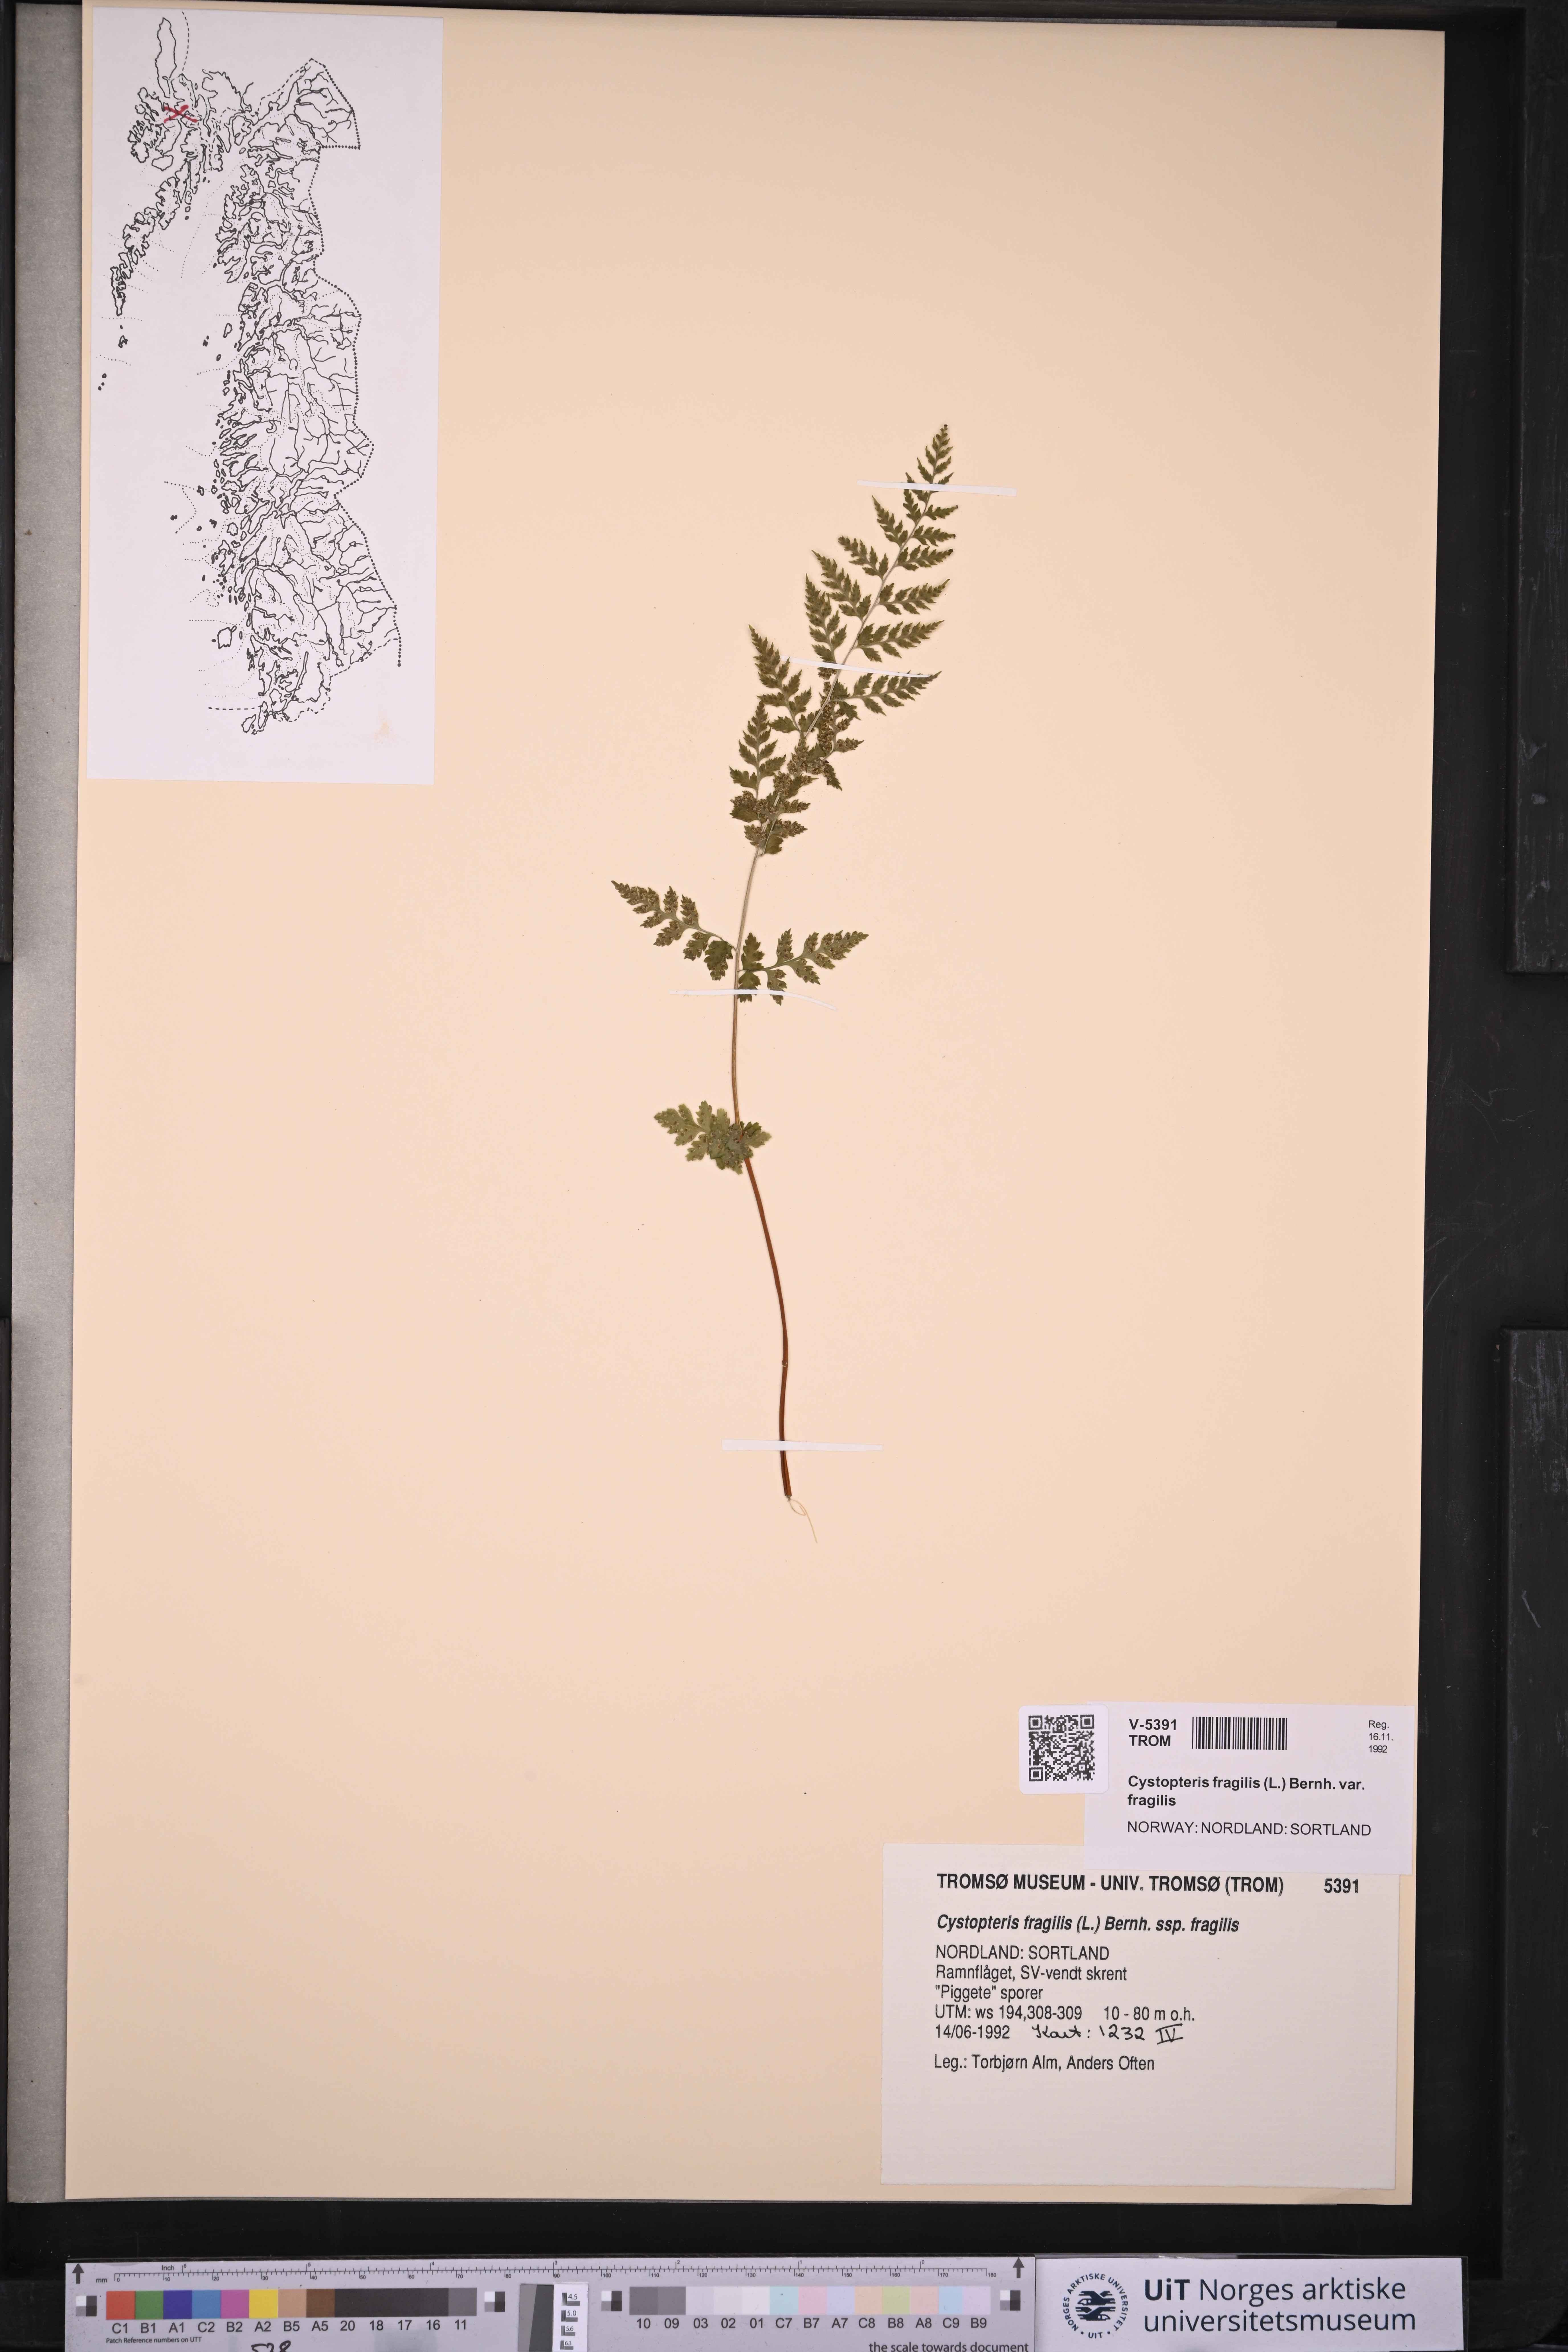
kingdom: Plantae
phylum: Tracheophyta
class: Polypodiopsida
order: Polypodiales
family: Cystopteridaceae
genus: Cystopteris
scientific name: Cystopteris fragilis
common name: Brittle bladder fern
